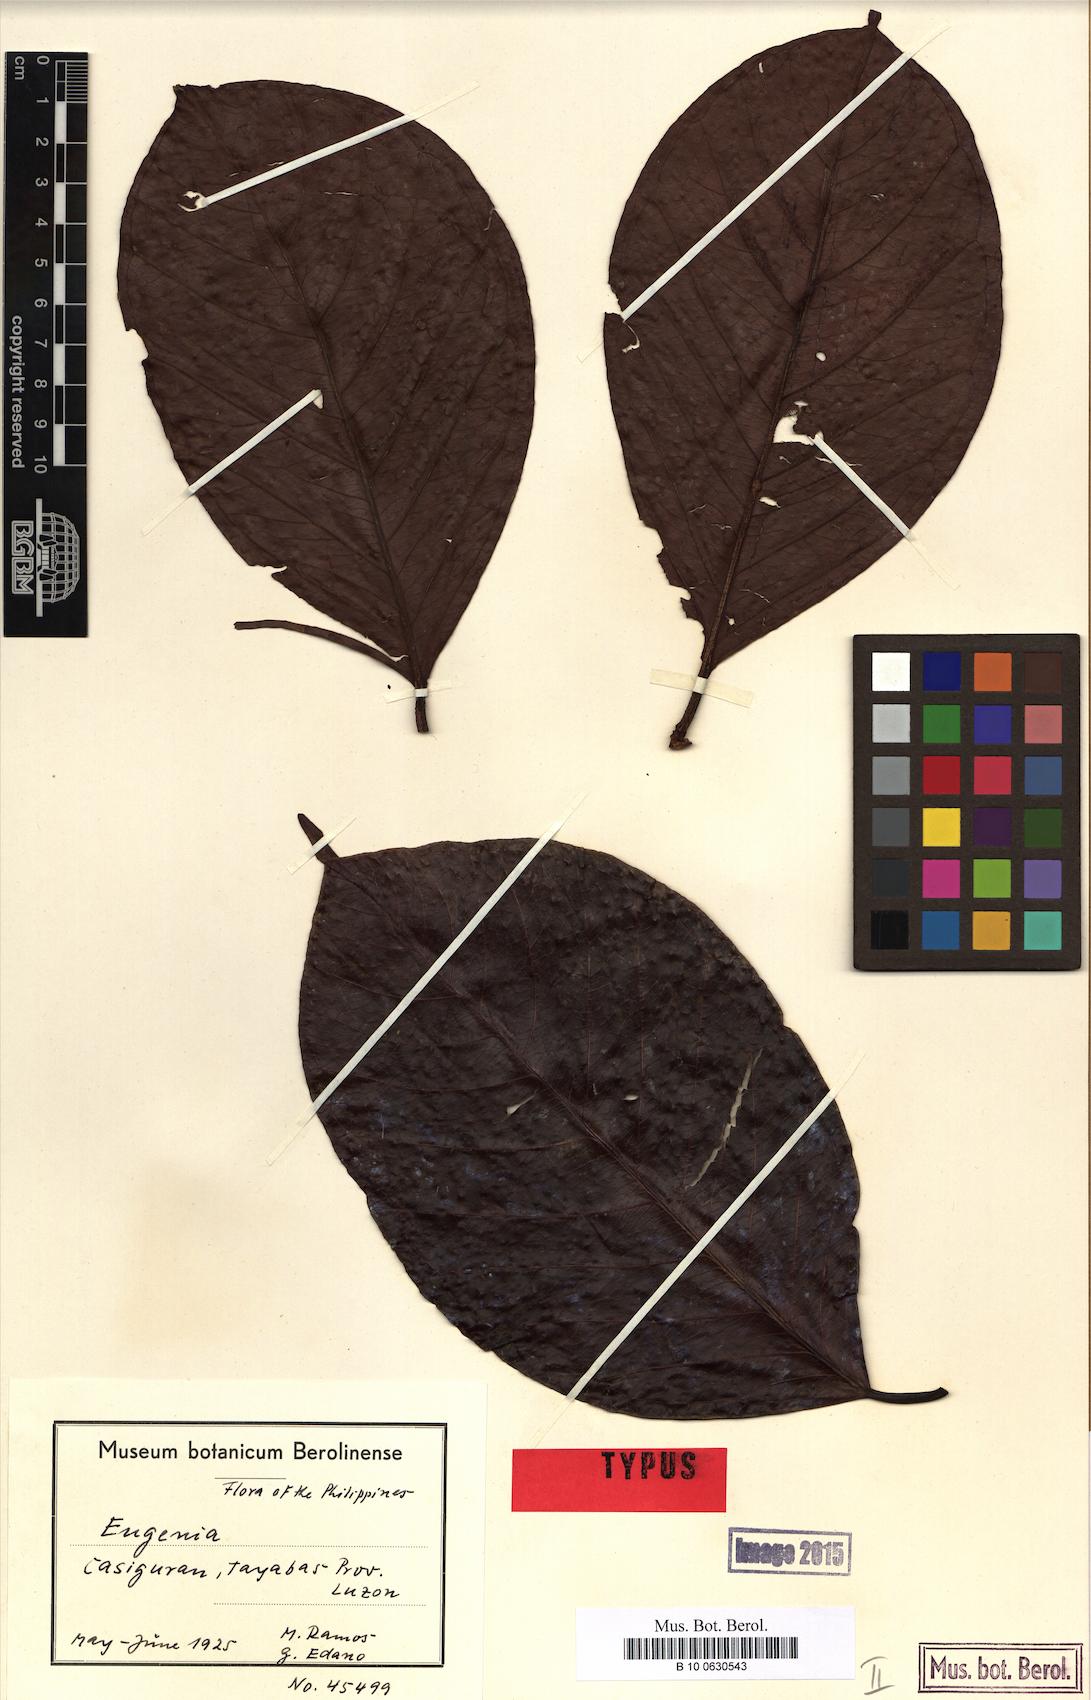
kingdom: Plantae
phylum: Tracheophyta
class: Magnoliopsida
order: Myrtales
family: Myrtaceae
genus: Syzygium
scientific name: Syzygium casiguranense
